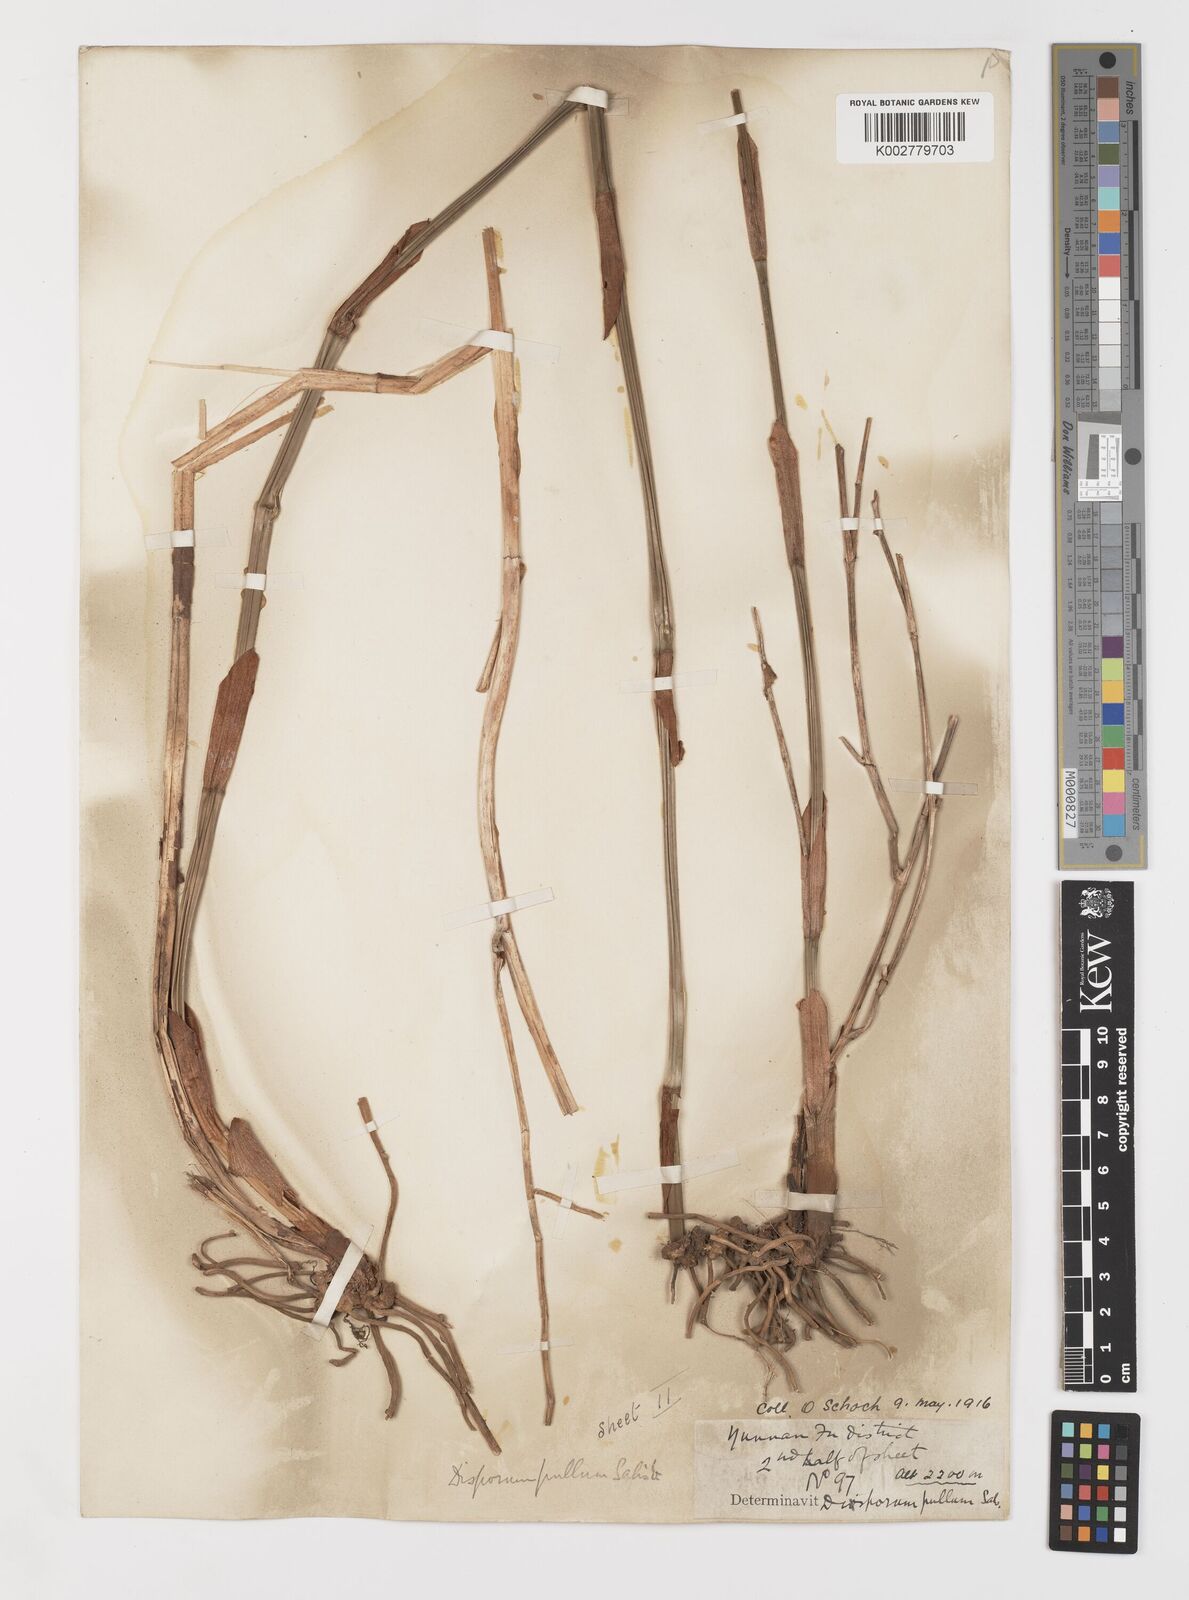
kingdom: Plantae
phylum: Tracheophyta
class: Liliopsida
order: Liliales
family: Colchicaceae
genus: Disporum
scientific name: Disporum cantoniense
